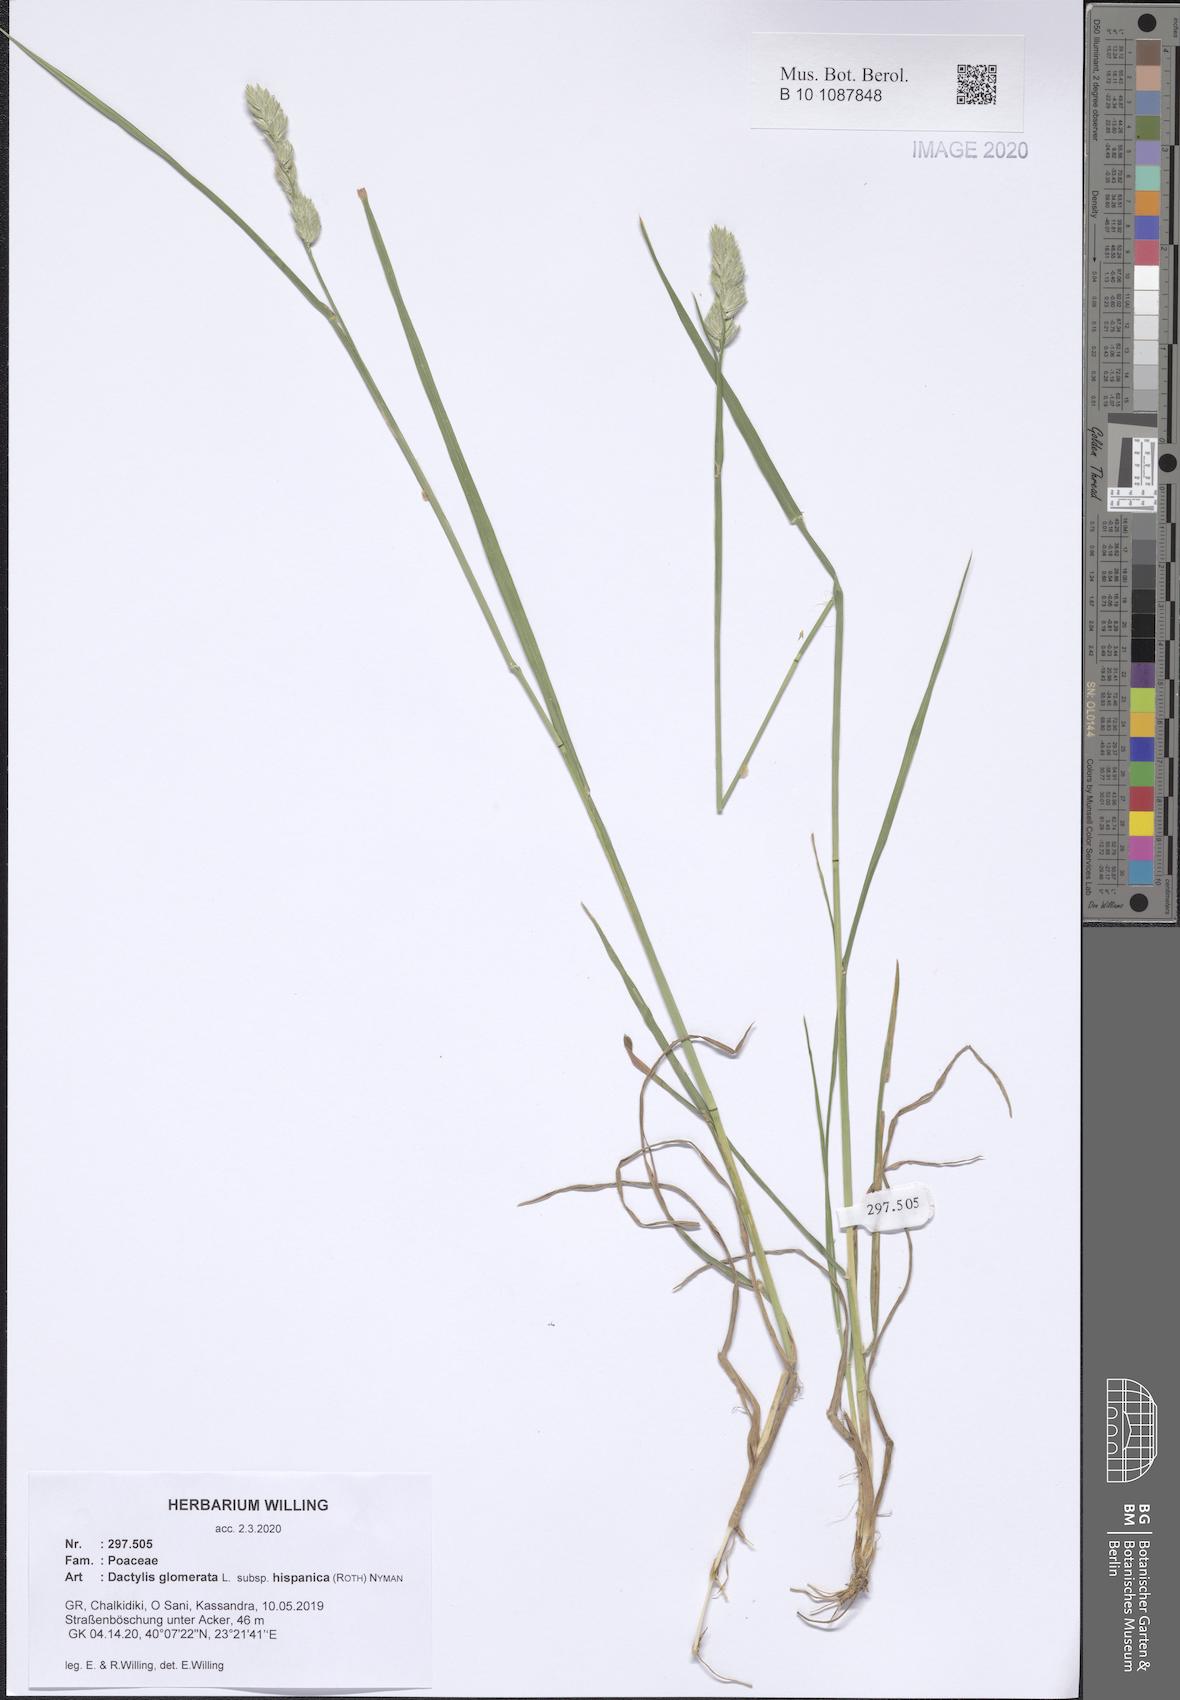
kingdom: Plantae
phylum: Tracheophyta
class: Liliopsida
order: Poales
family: Poaceae
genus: Dactylis
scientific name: Dactylis glomerata
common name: Orchardgrass
